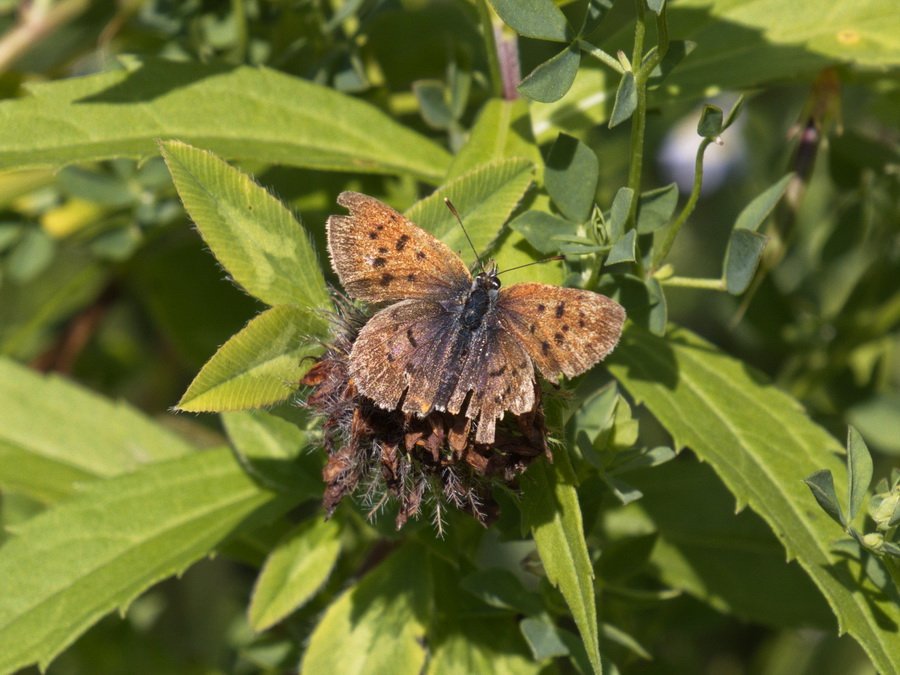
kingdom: Animalia
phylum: Arthropoda
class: Insecta
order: Lepidoptera
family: Lycaenidae
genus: Epidemia
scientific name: Epidemia dorcas
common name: Dorcas Copper
